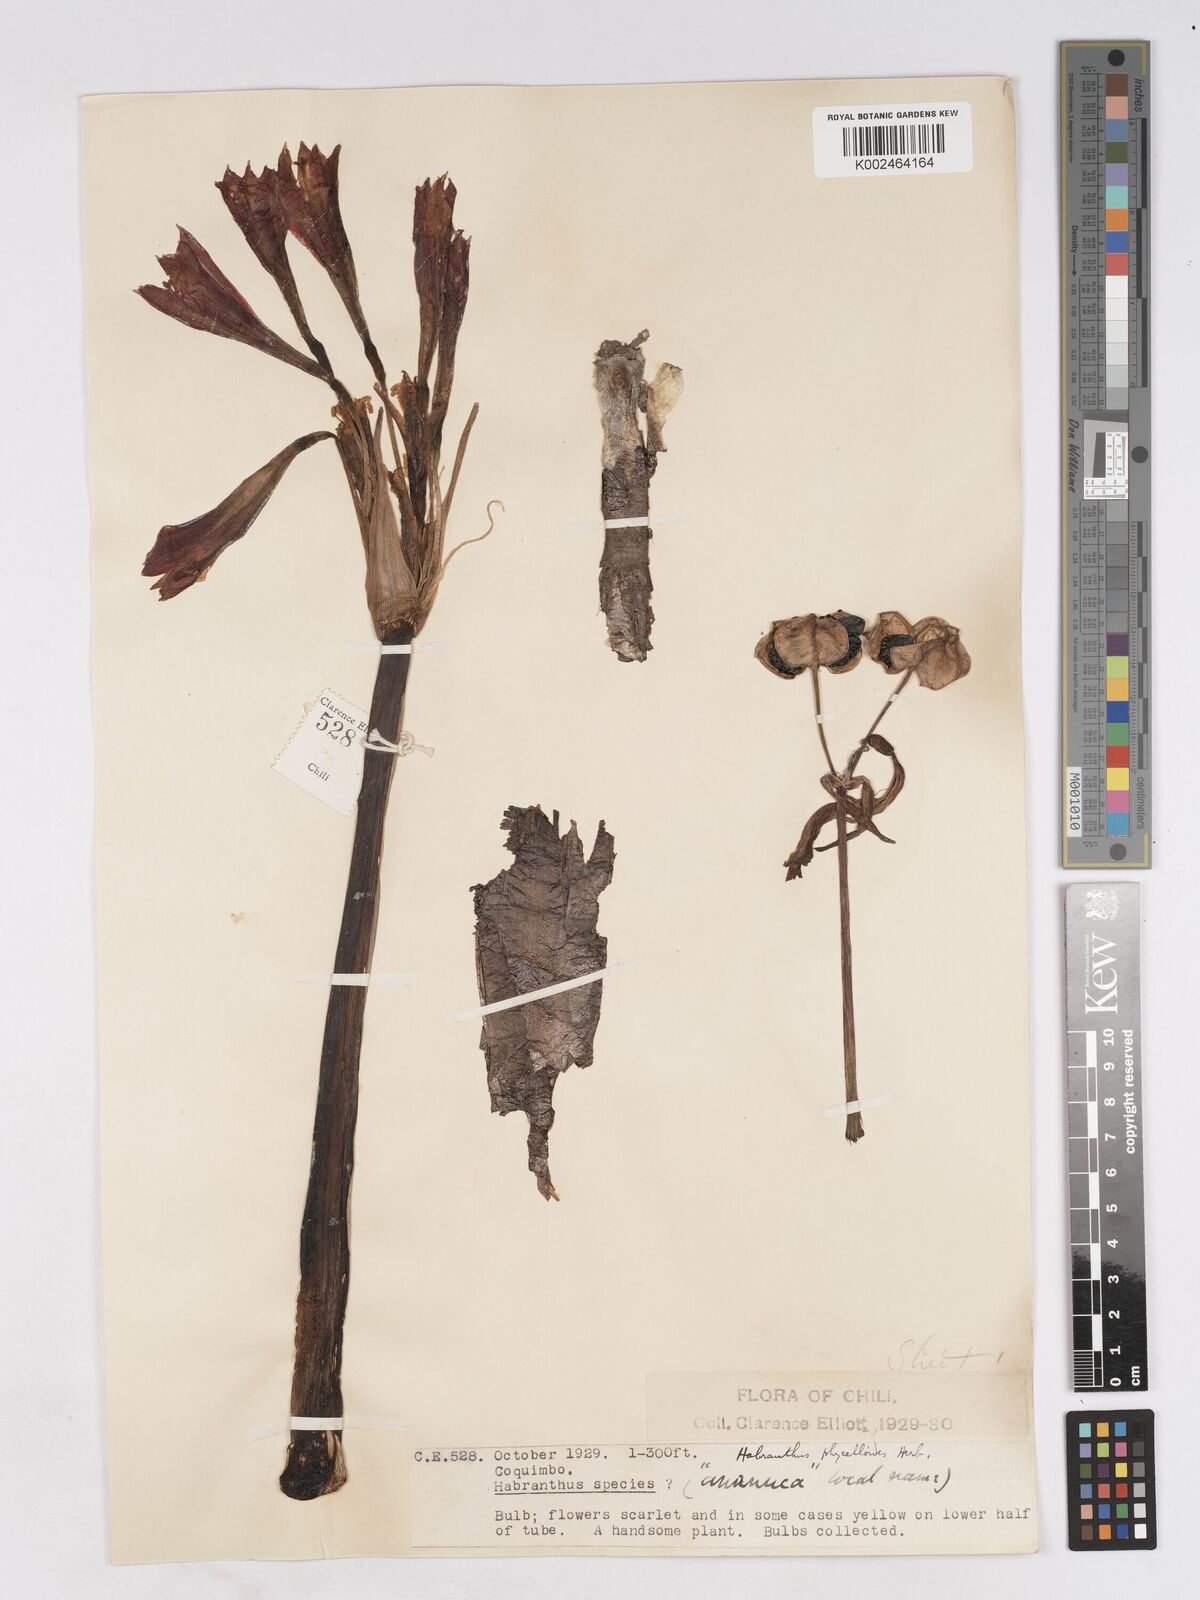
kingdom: Plantae
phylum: Tracheophyta
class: Liliopsida
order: Asparagales
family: Amaryllidaceae
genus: Zephyranthes
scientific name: Zephyranthes phycelloides
